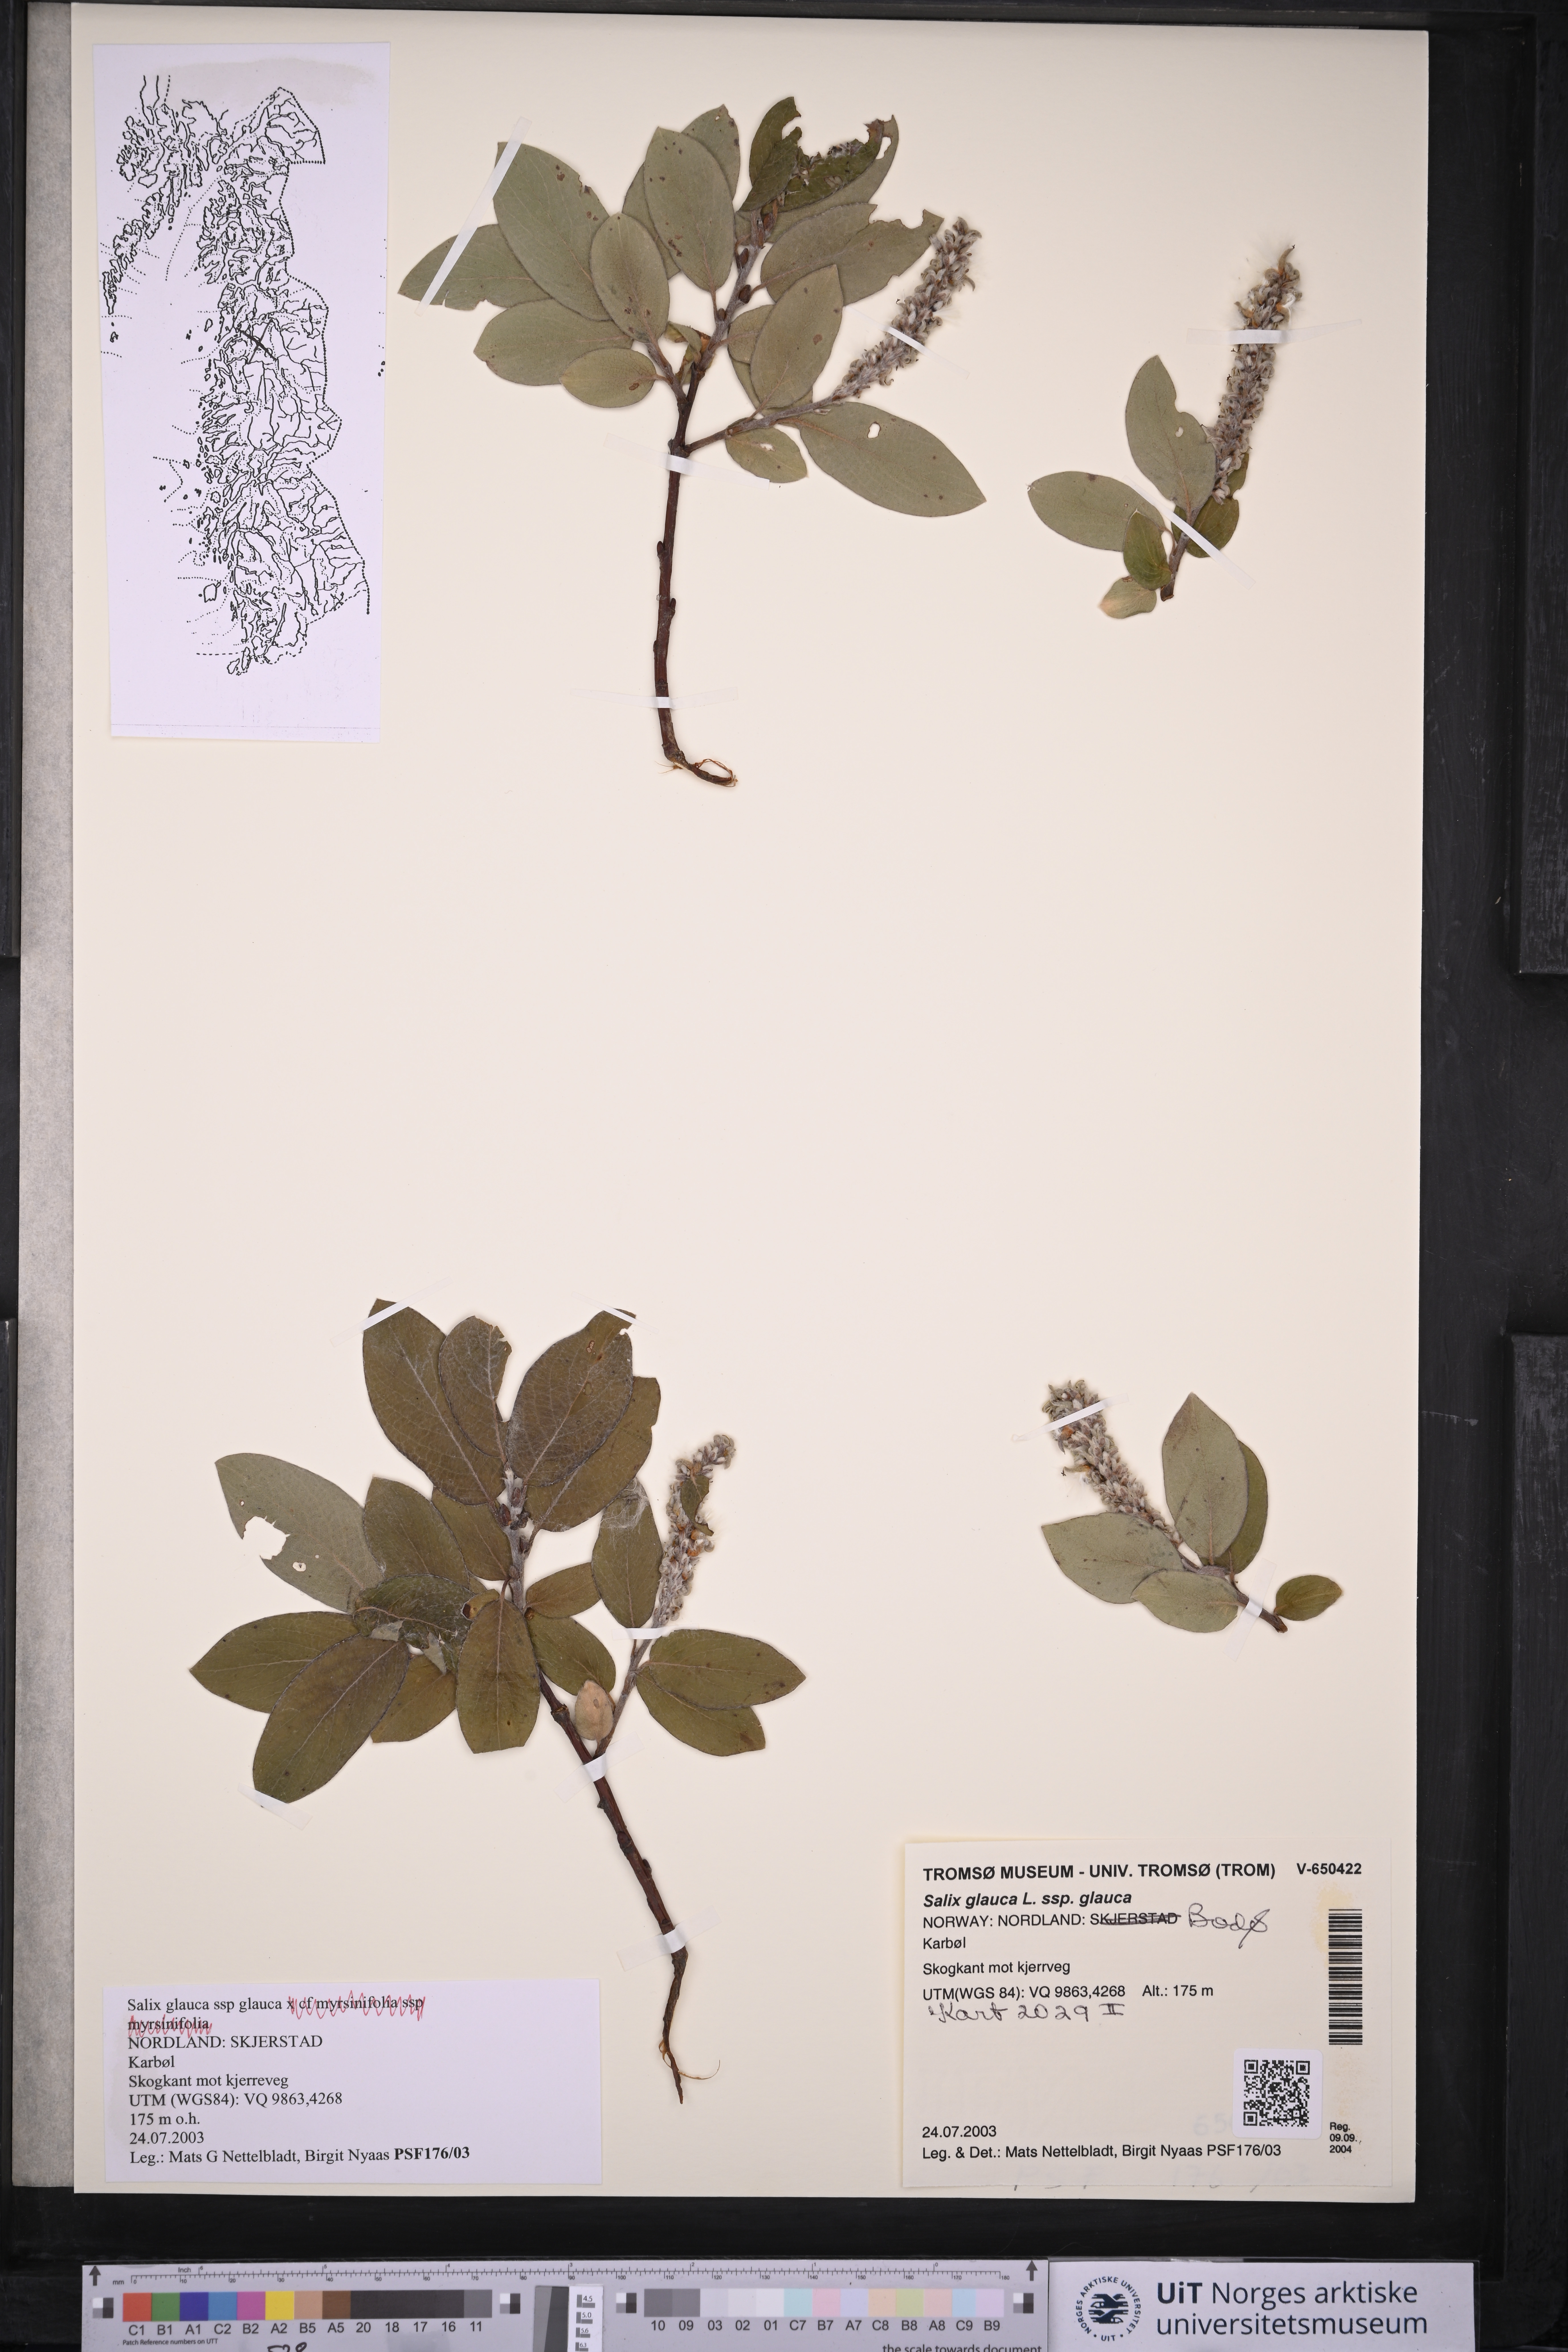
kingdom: Plantae
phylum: Tracheophyta
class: Magnoliopsida
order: Malpighiales
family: Salicaceae
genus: Salix
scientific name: Salix glauca
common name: Glaucous willow
